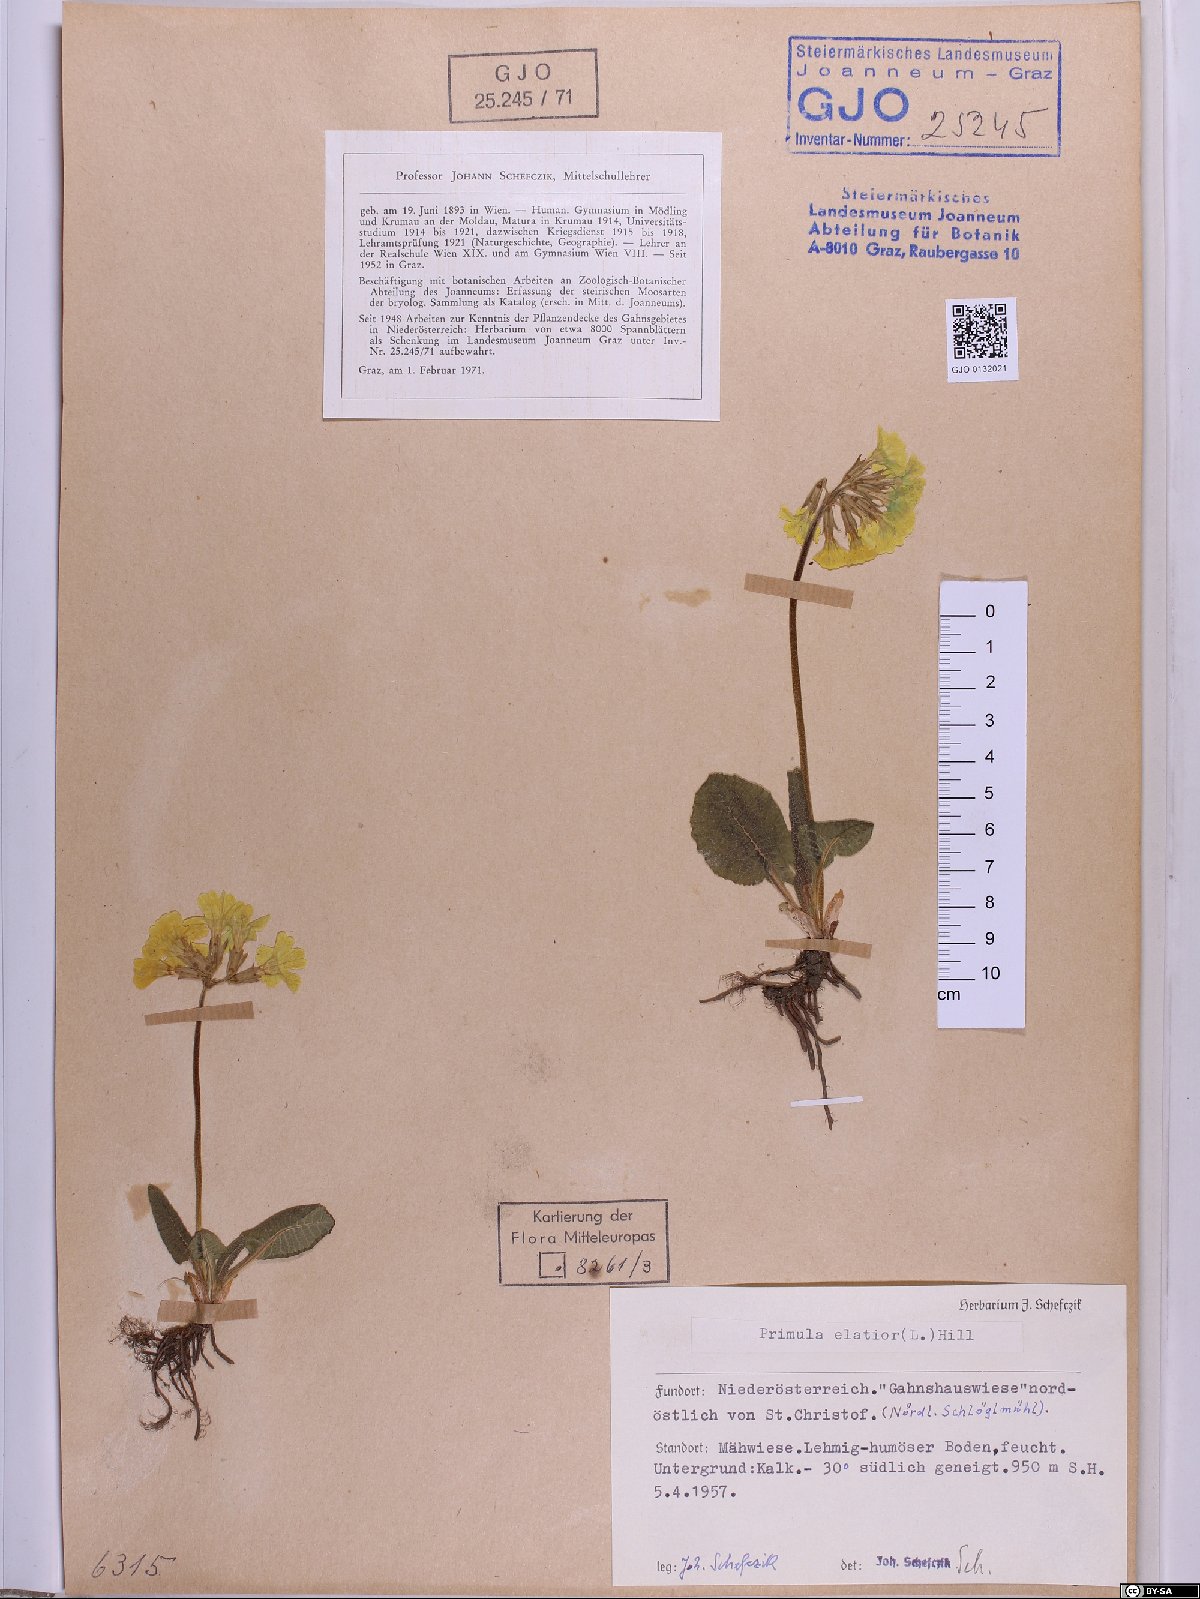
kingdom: Plantae
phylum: Tracheophyta
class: Magnoliopsida
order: Ericales
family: Primulaceae
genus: Primula
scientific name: Primula elatior
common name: Oxlip
